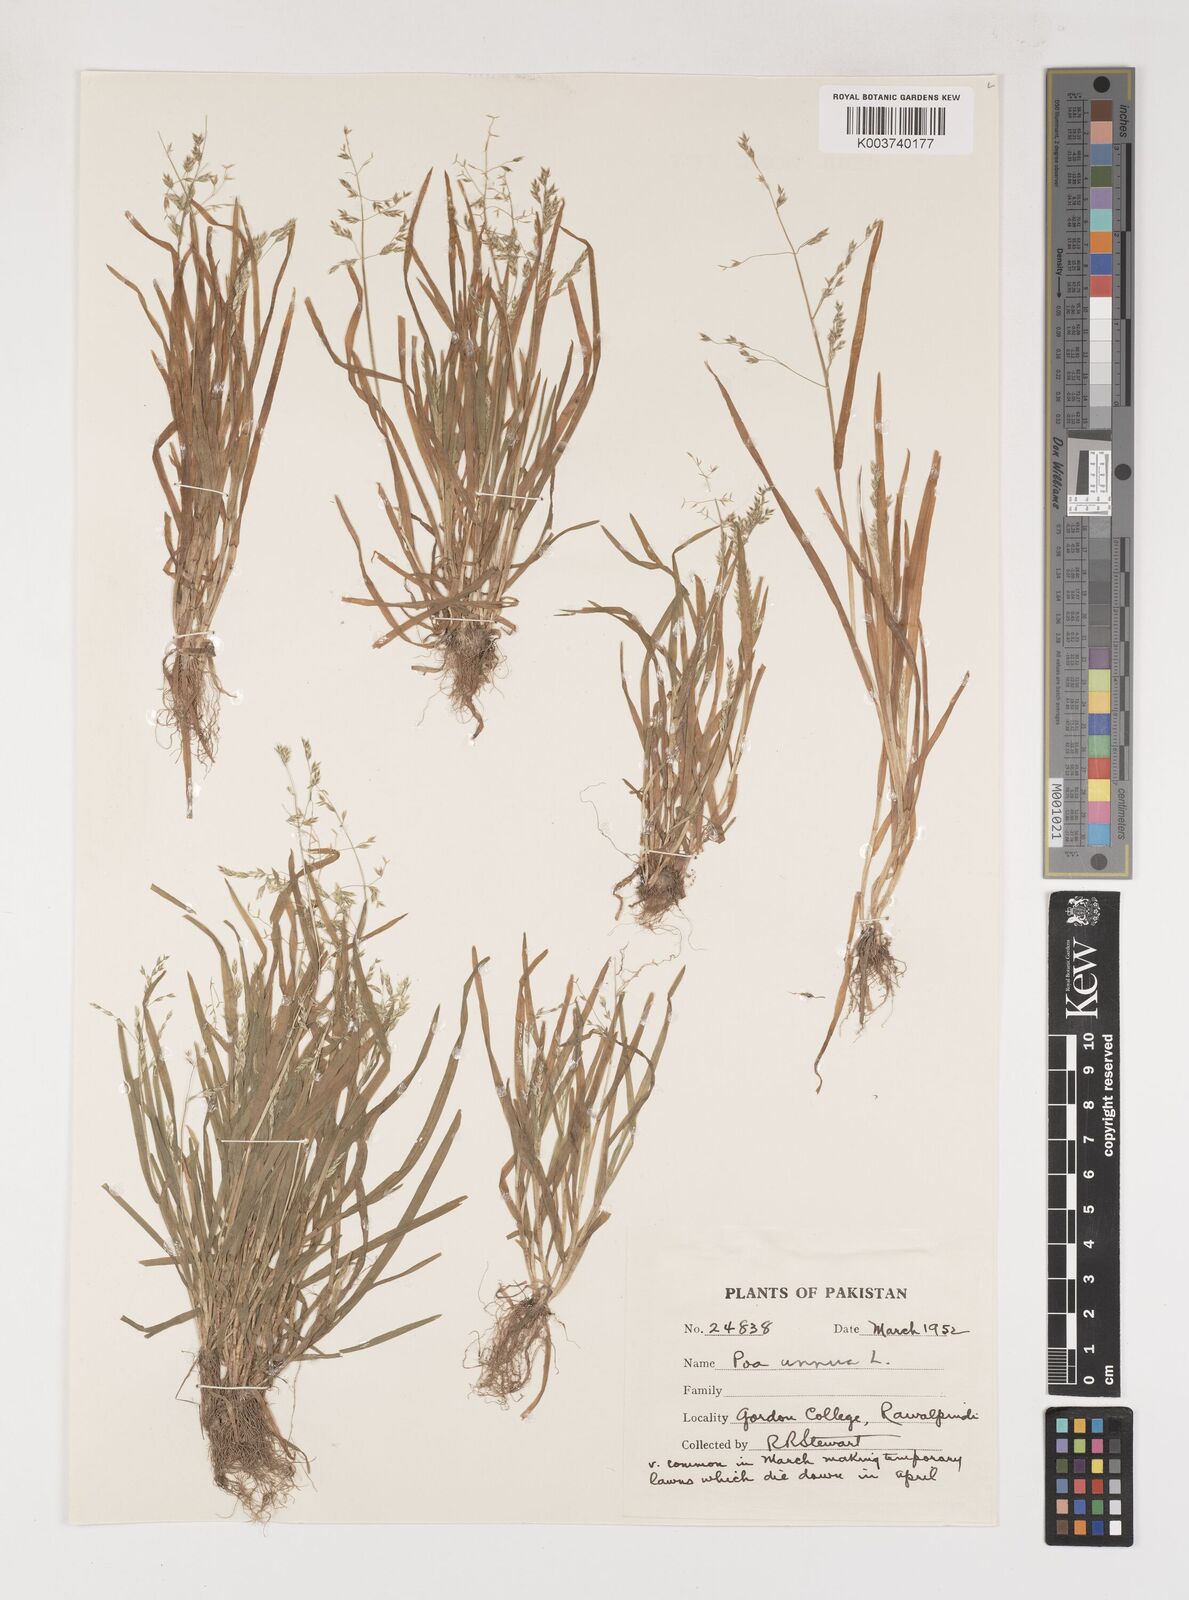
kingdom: Plantae
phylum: Tracheophyta
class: Liliopsida
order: Poales
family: Poaceae
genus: Poa
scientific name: Poa annua
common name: Annual bluegrass
